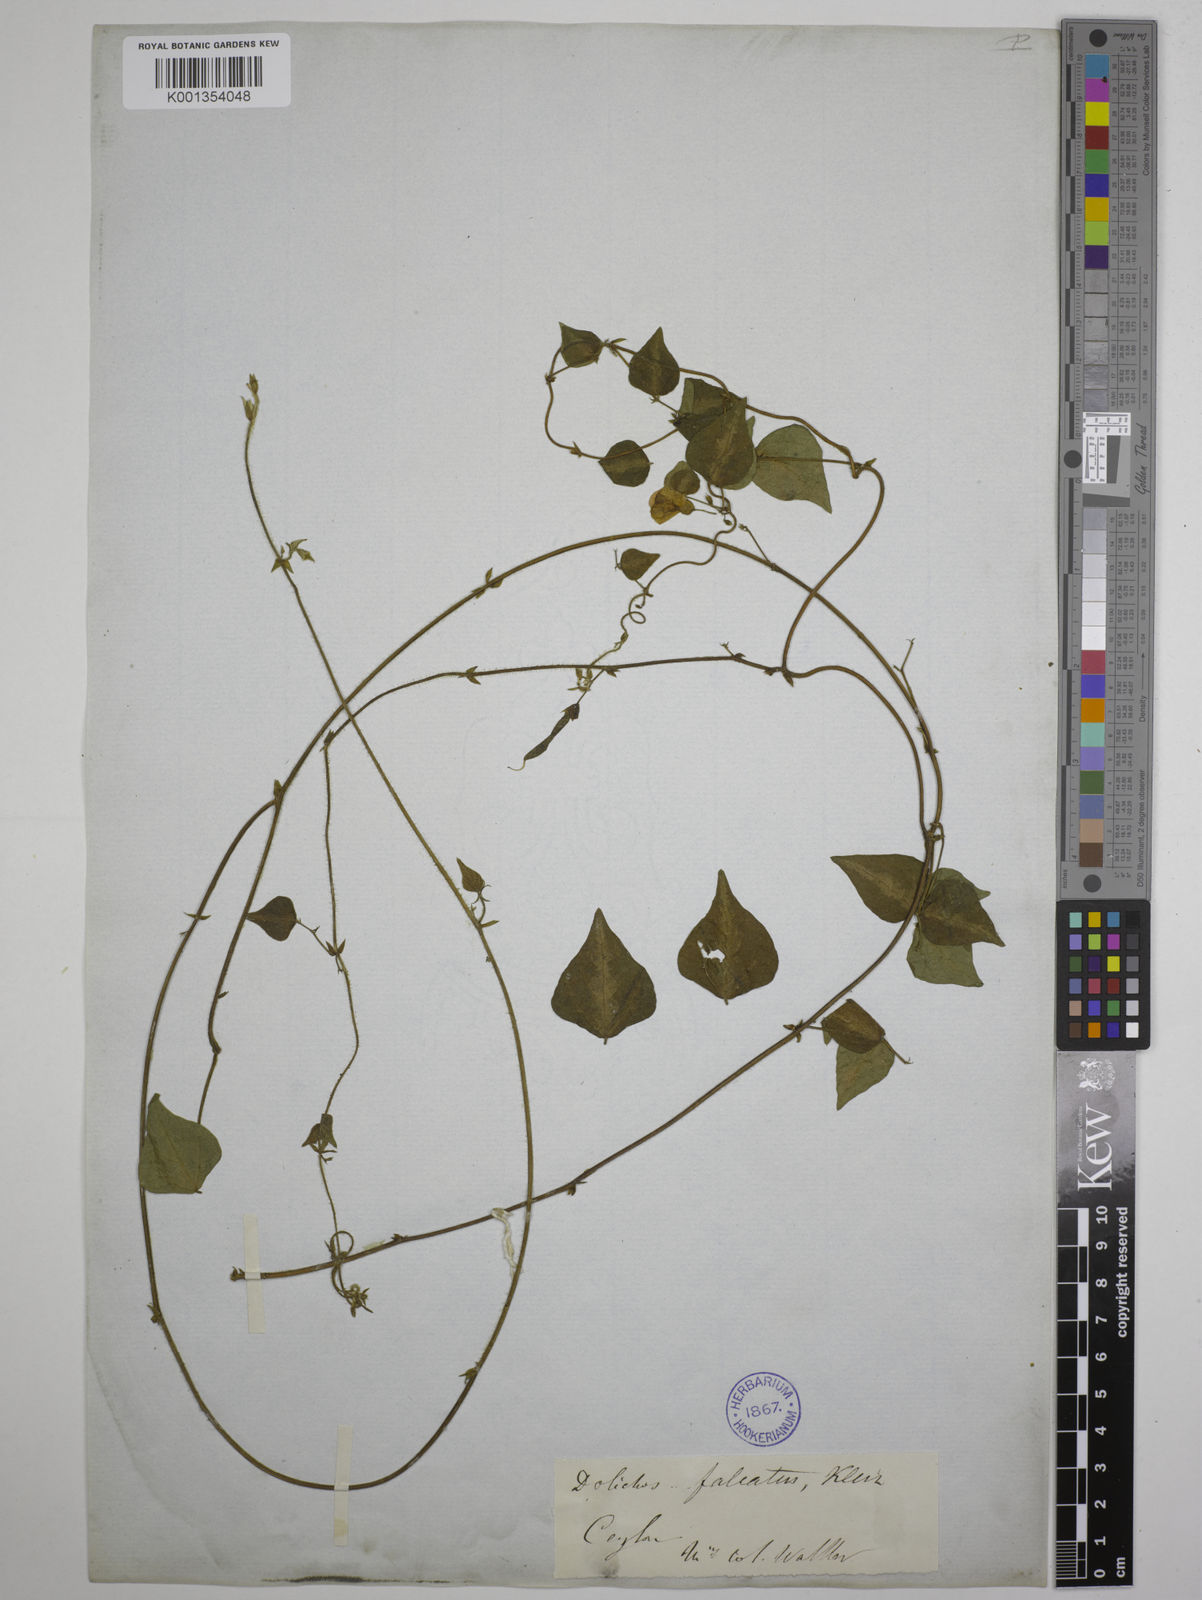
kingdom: Plantae
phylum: Tracheophyta
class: Magnoliopsida
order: Fabales
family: Fabaceae
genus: Dolichos
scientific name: Dolichos
